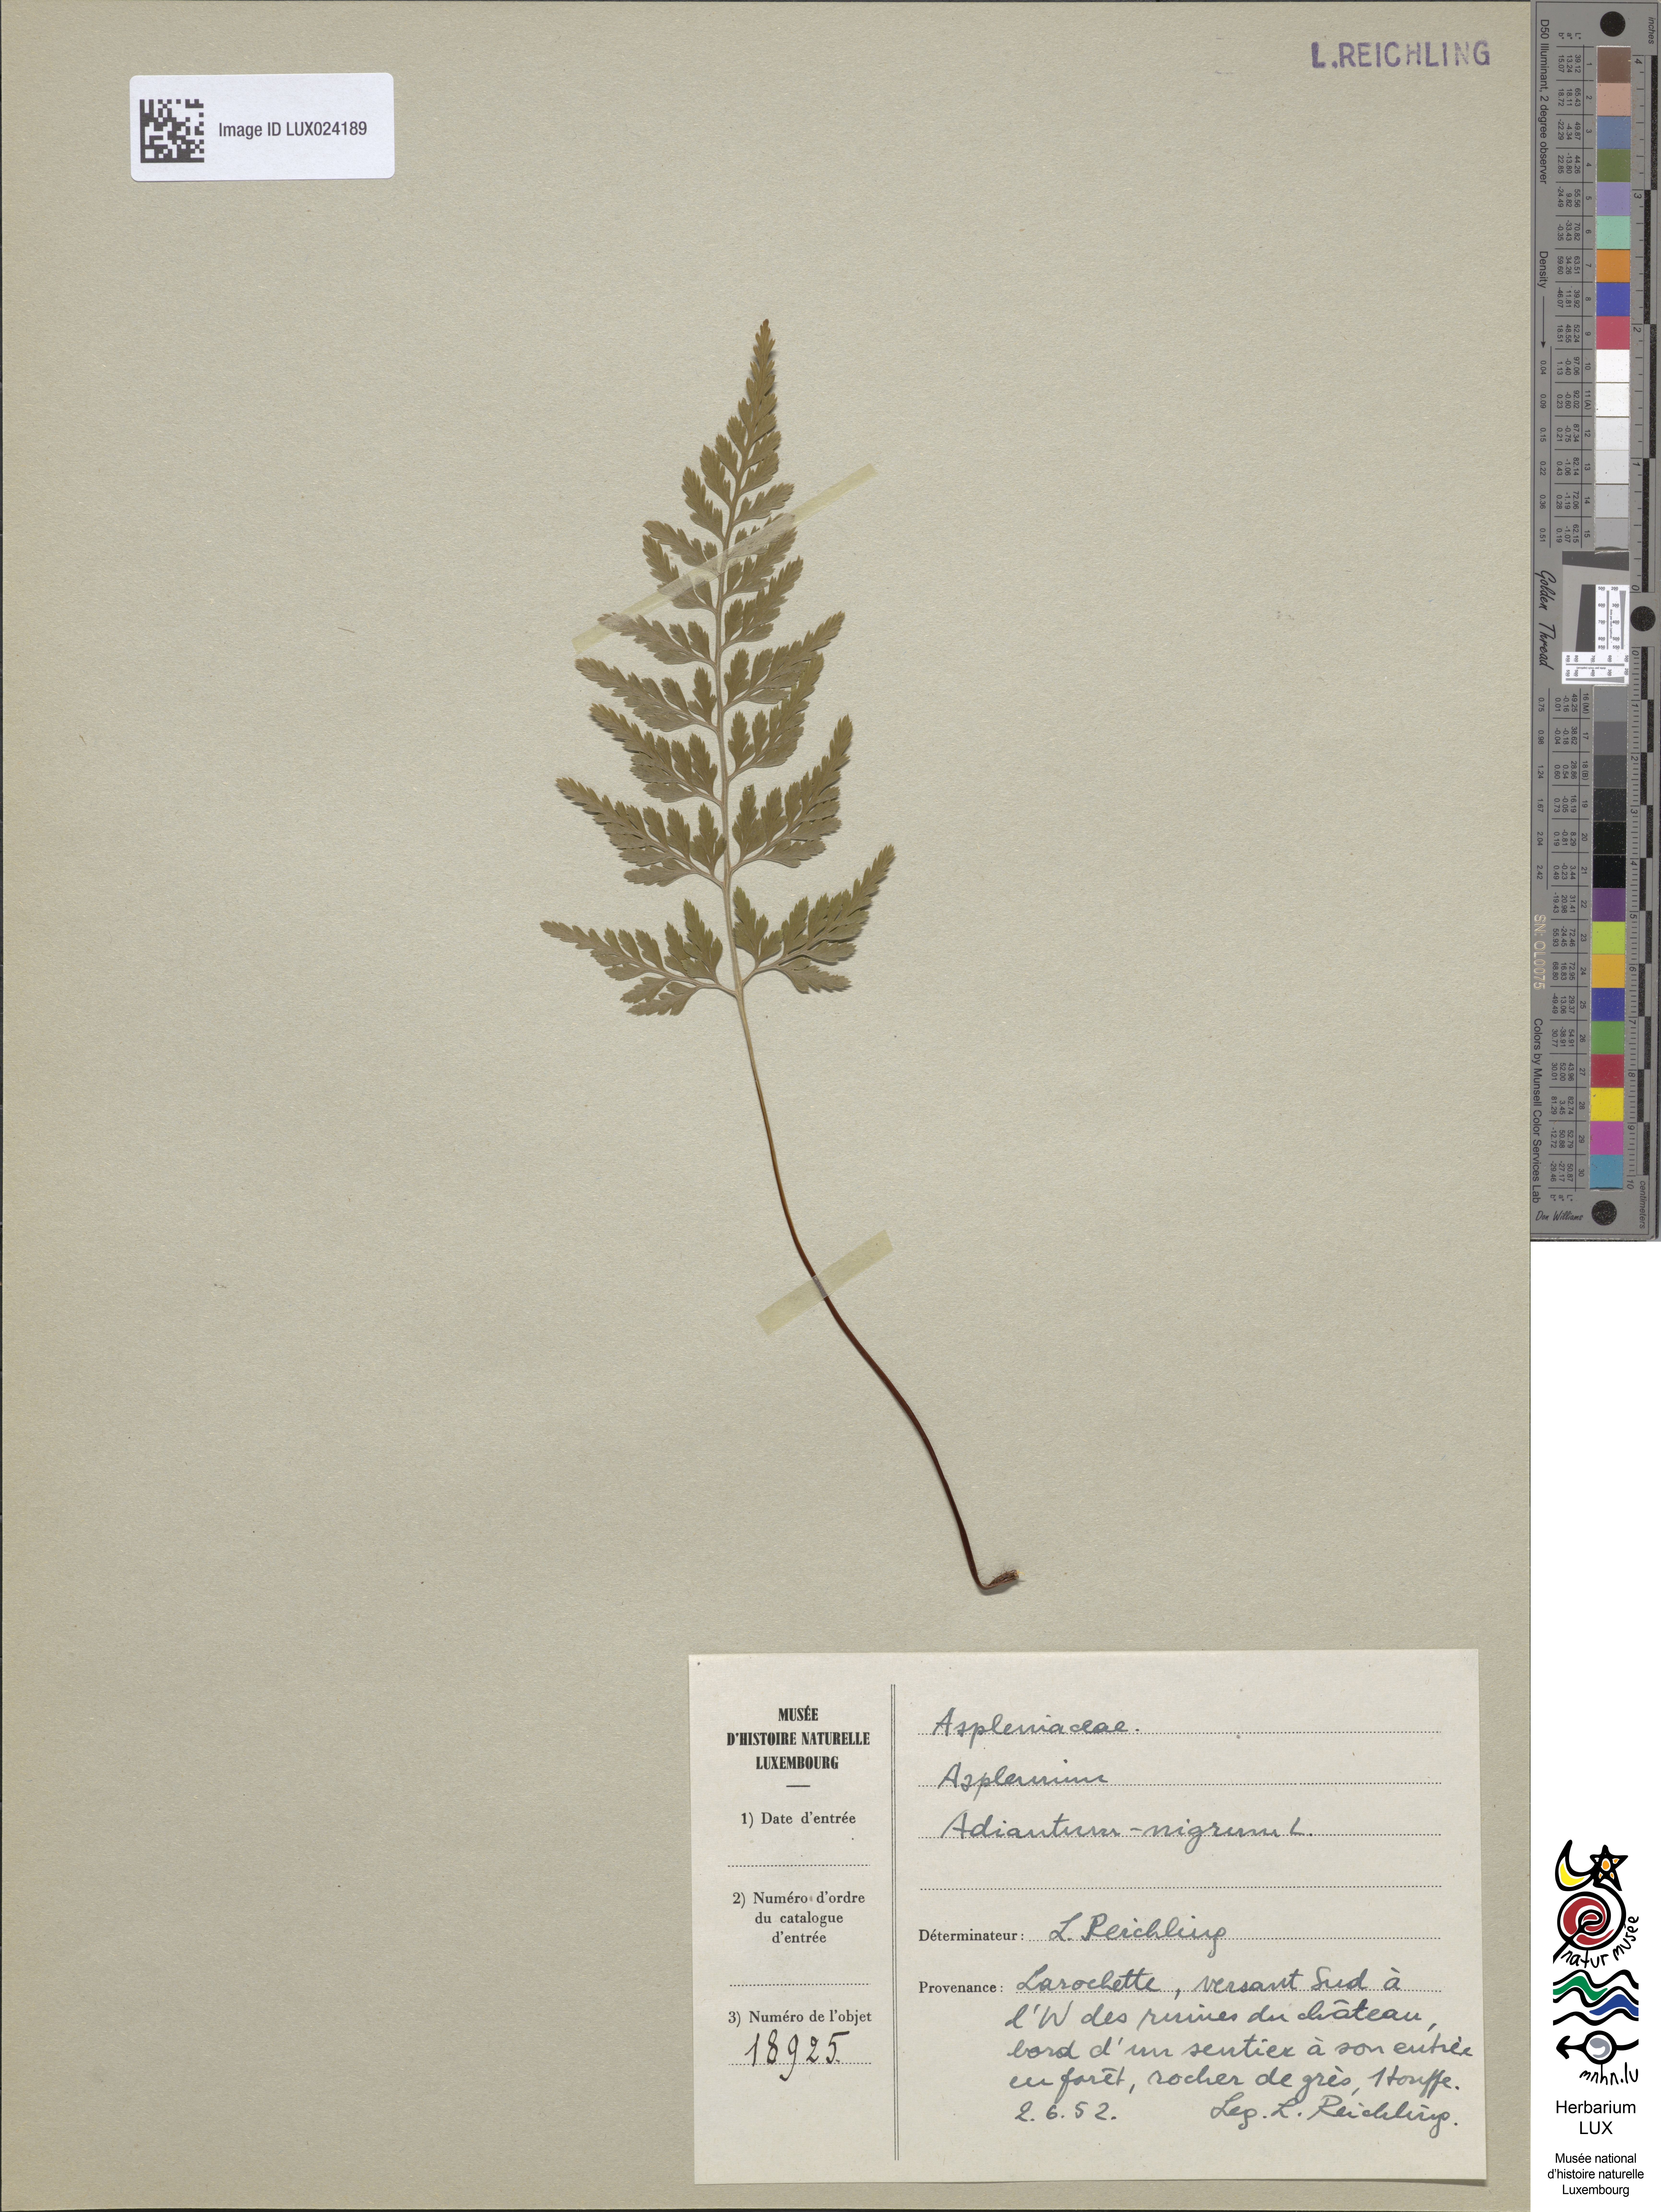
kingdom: Plantae
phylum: Tracheophyta
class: Polypodiopsida
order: Polypodiales
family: Aspleniaceae
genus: Asplenium
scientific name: Asplenium adiantum-nigrum
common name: Black spleenwort
